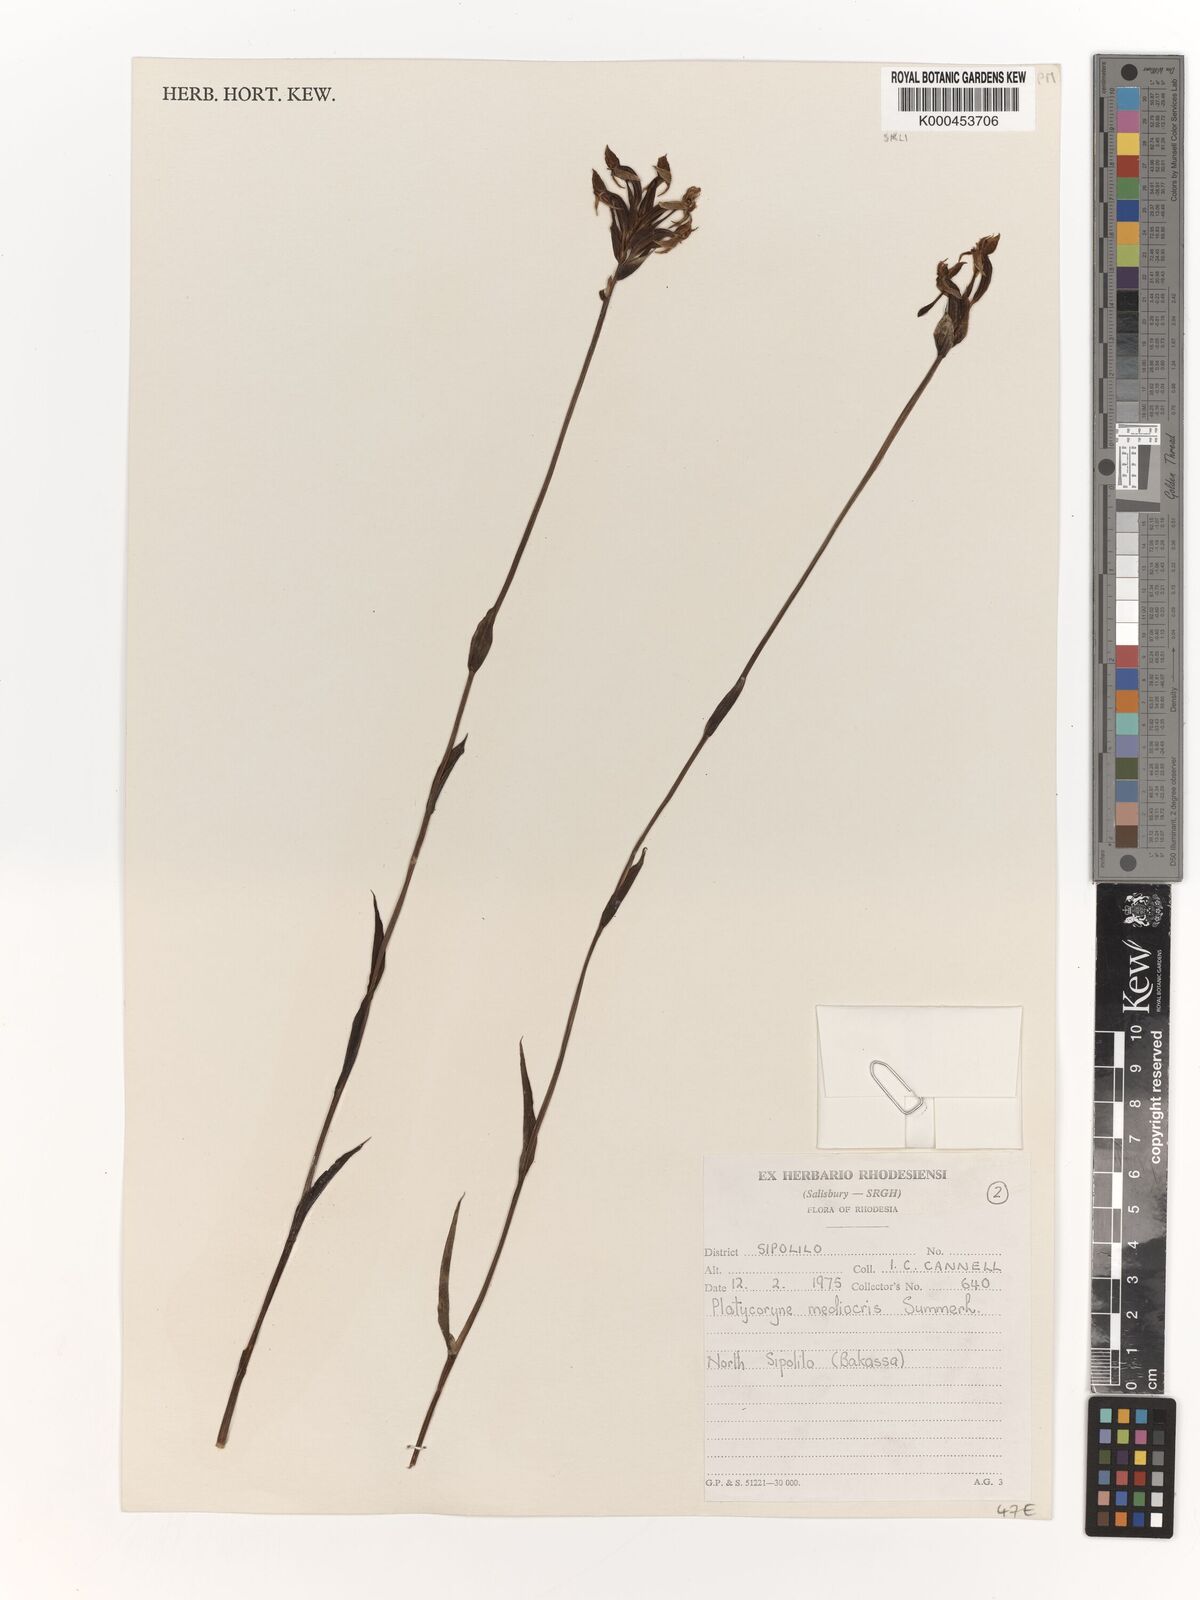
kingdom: Plantae
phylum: Tracheophyta
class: Liliopsida
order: Asparagales
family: Orchidaceae
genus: Platycoryne
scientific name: Platycoryne mediocris
